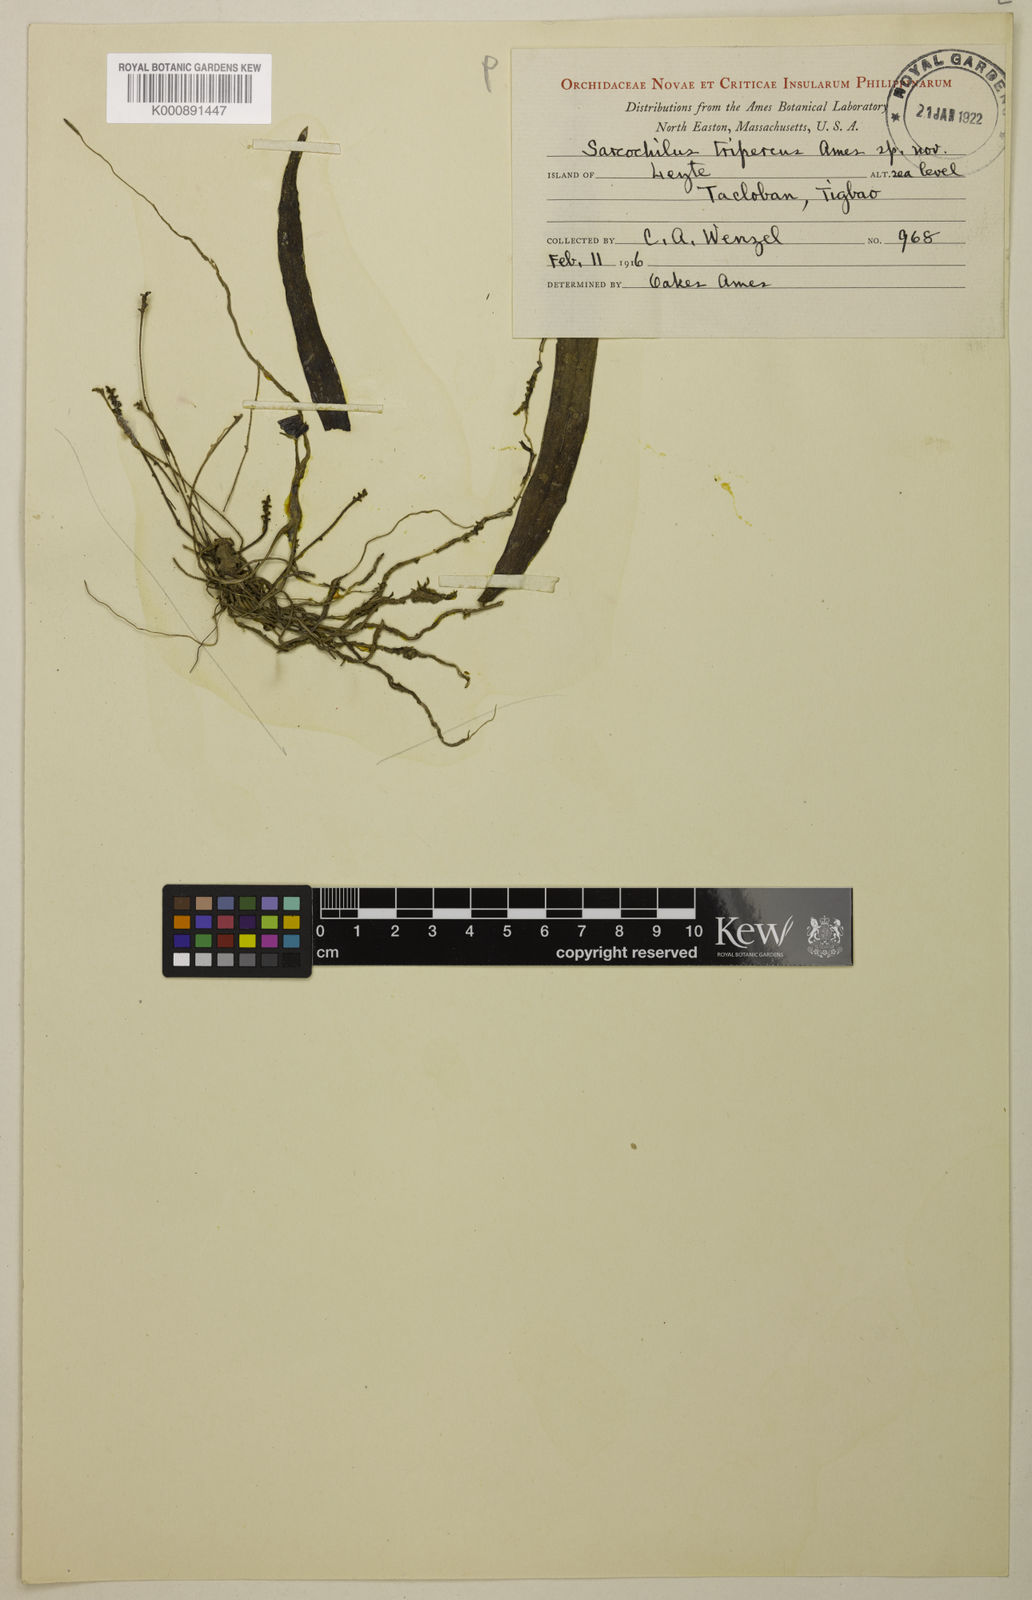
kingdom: Plantae
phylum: Tracheophyta
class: Liliopsida
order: Asparagales
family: Orchidaceae
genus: Grosourdya
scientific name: Grosourdya tripercus
